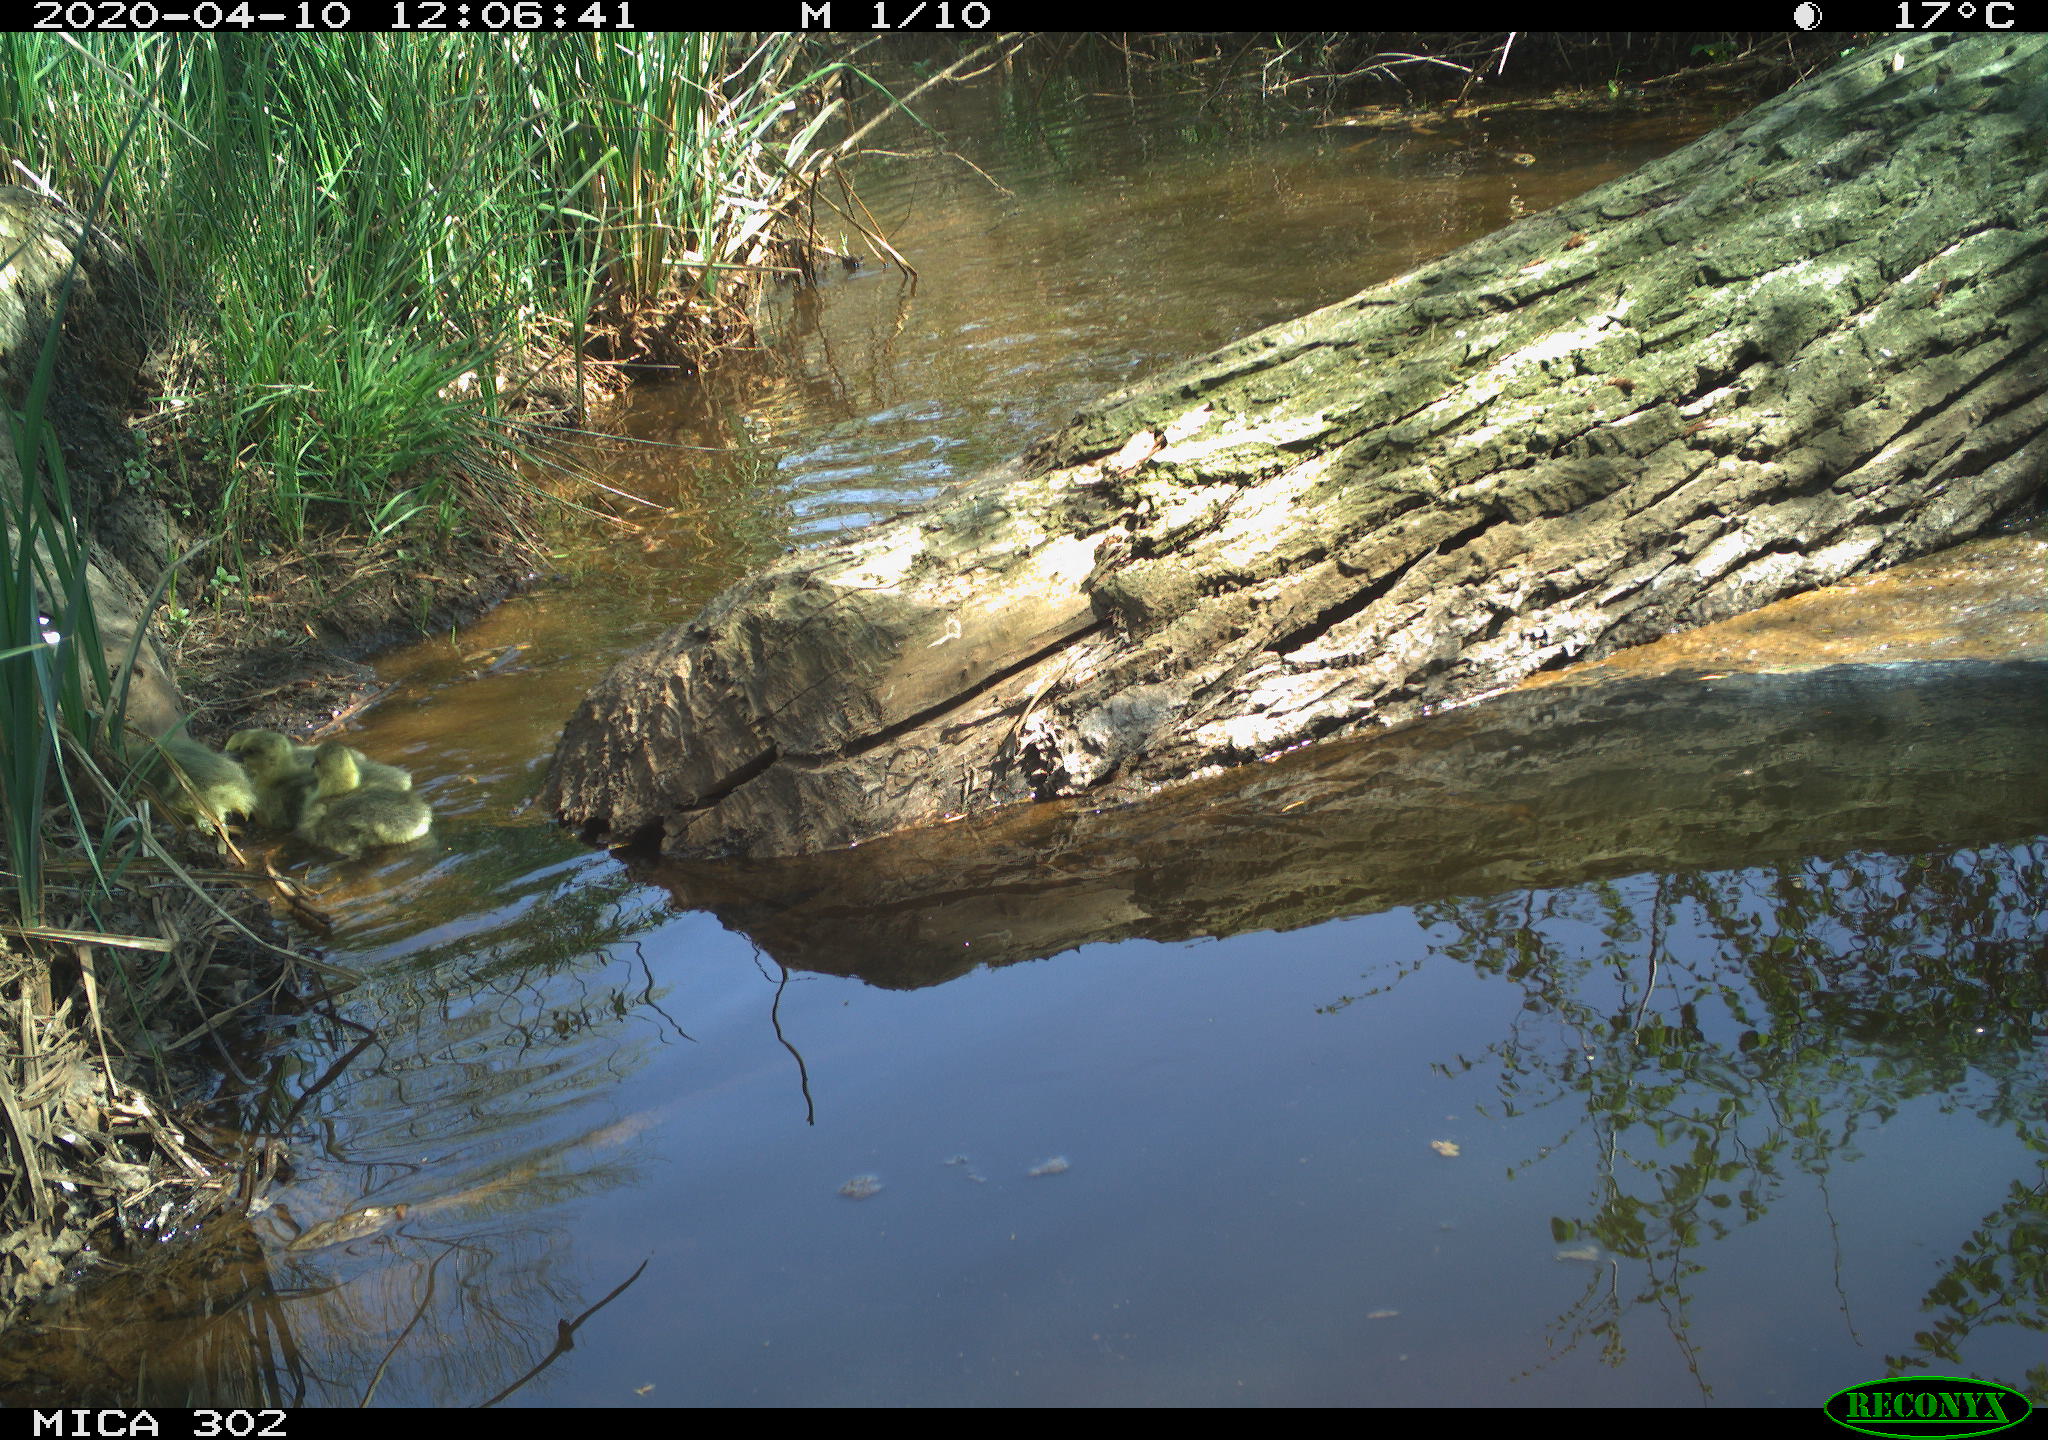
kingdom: Animalia
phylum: Chordata
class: Aves
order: Anseriformes
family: Anatidae
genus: Anser
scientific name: Anser anser
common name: Greylag goose
